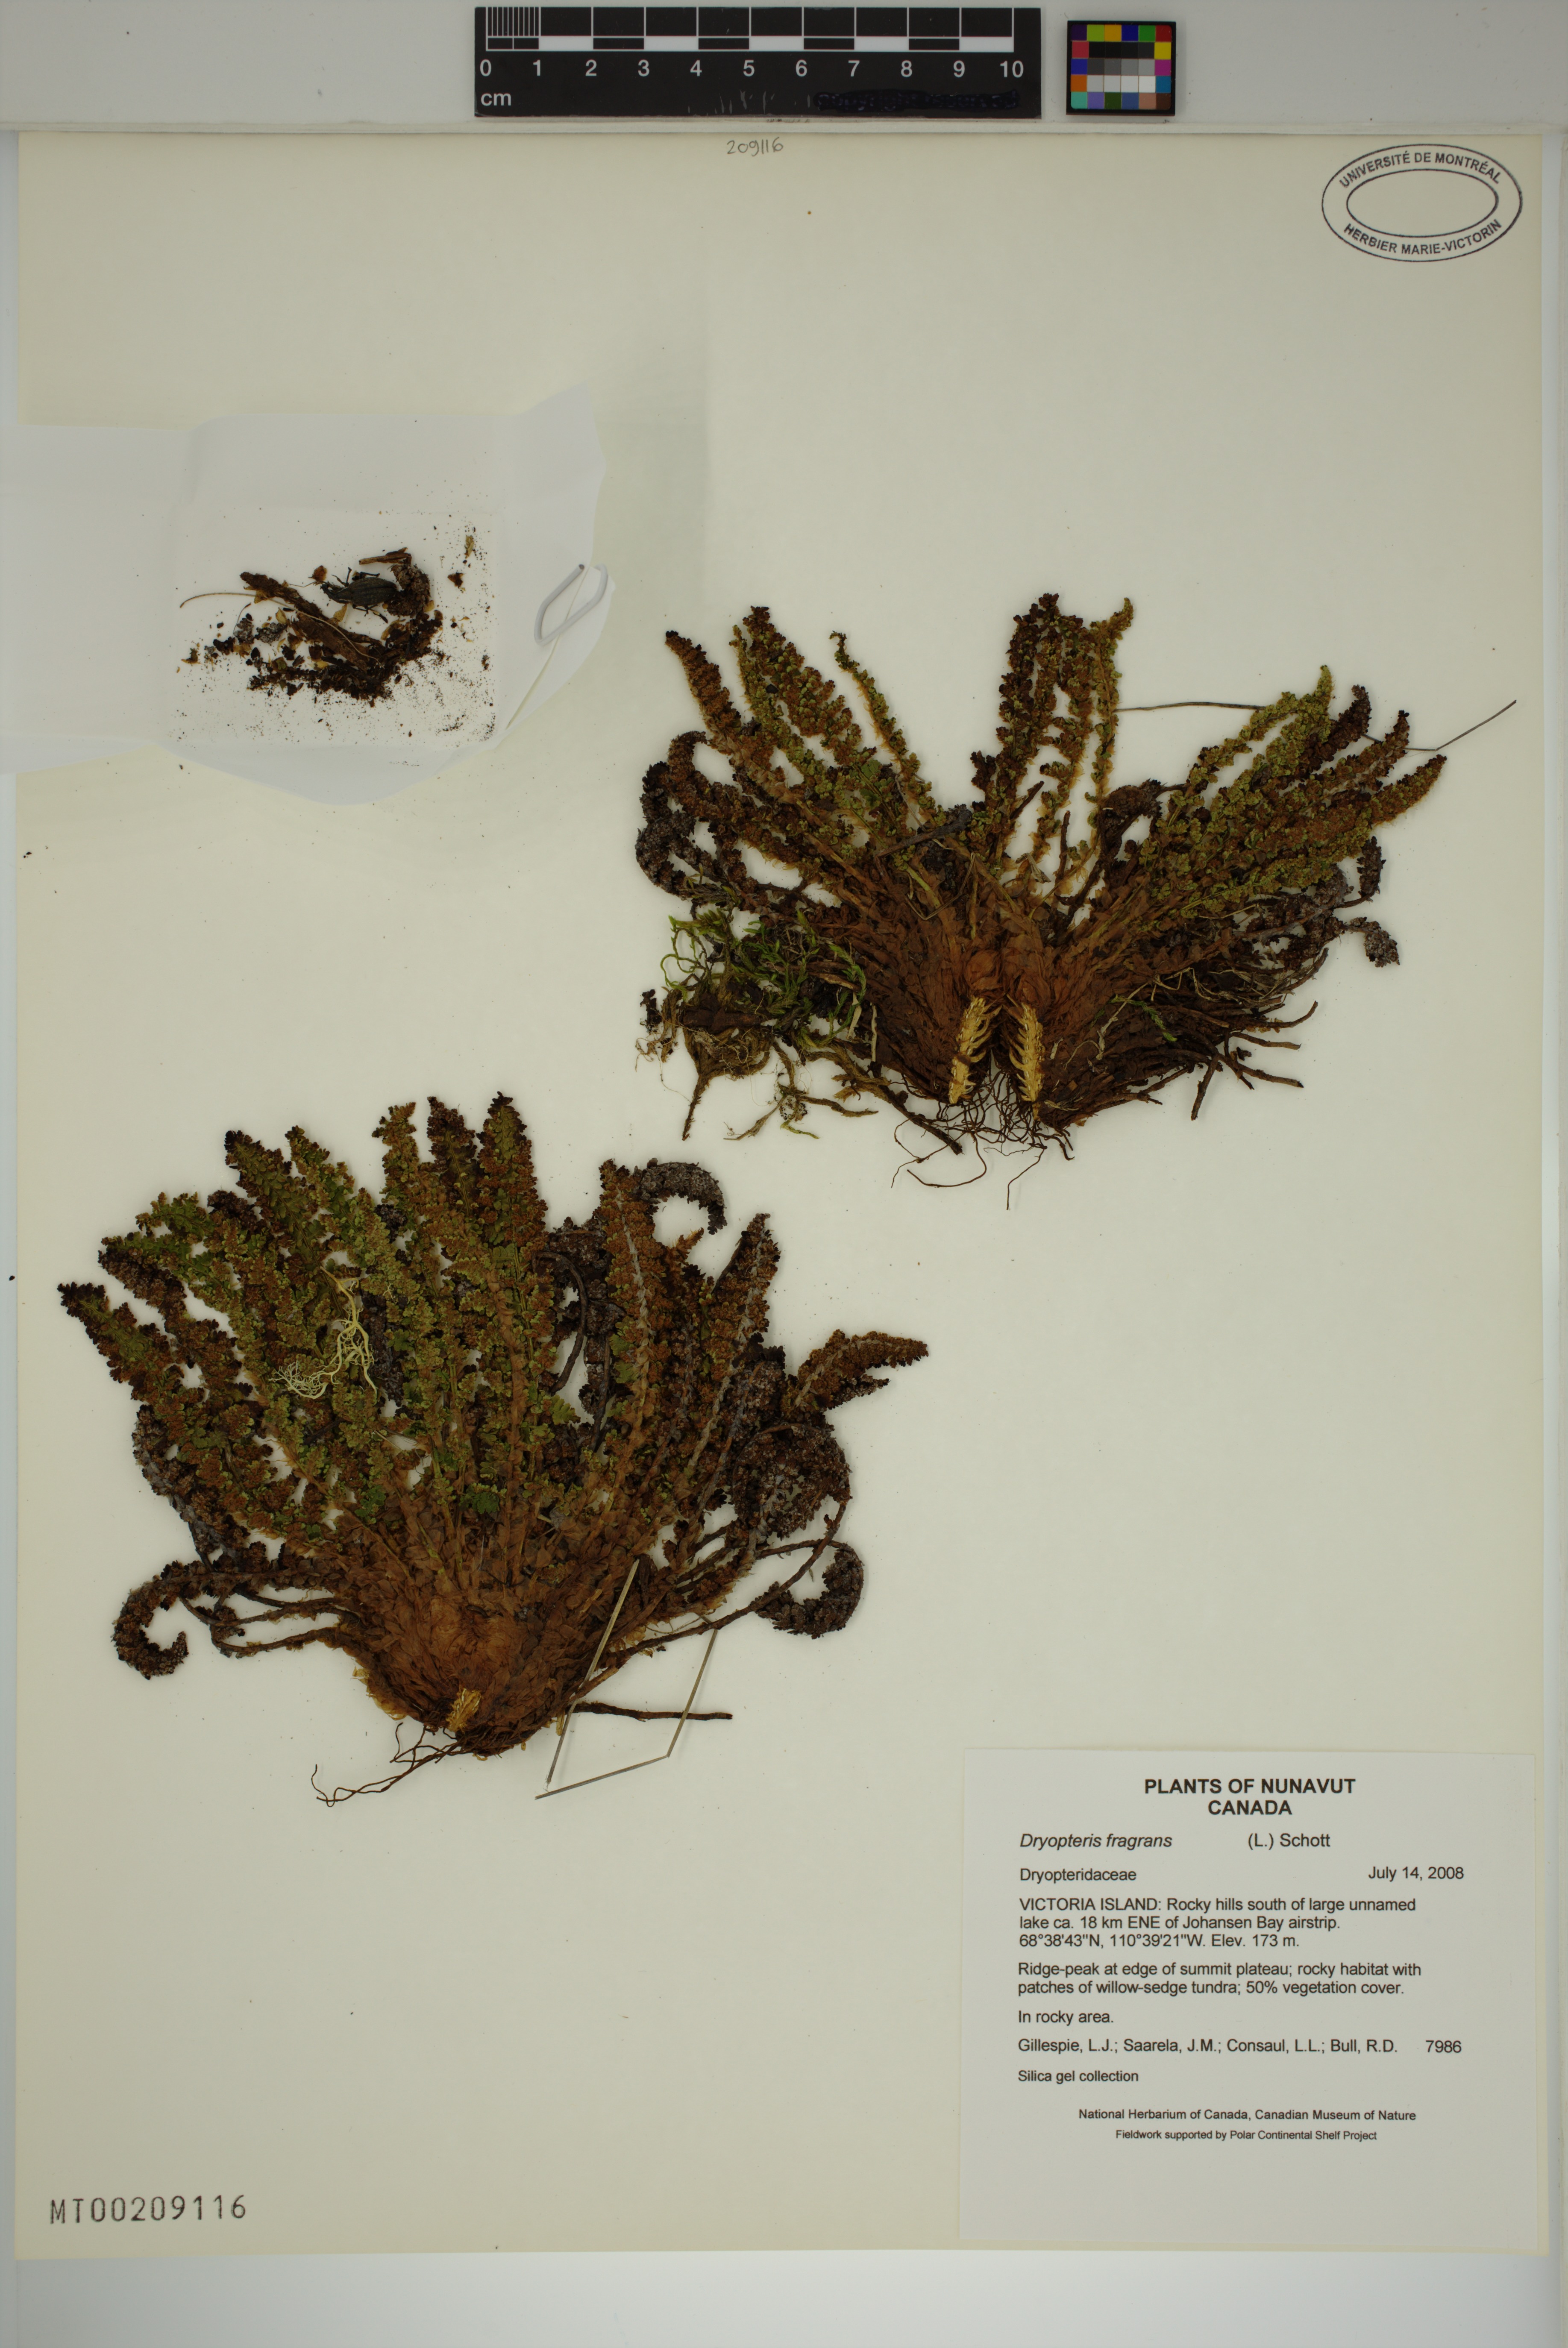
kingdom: Plantae
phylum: Tracheophyta
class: Polypodiopsida
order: Polypodiales
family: Dryopteridaceae
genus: Dryopteris
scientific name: Dryopteris fragrans
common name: Fragrant wood fern
